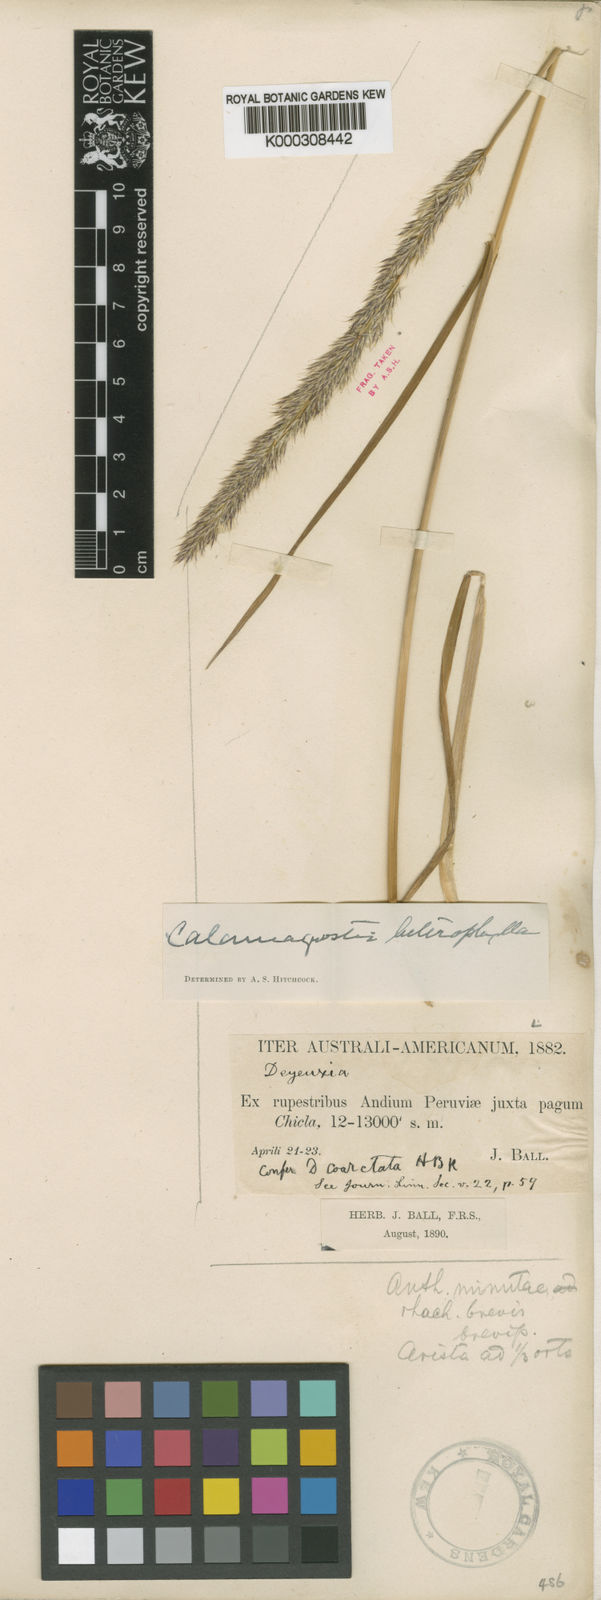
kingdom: Plantae
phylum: Tracheophyta
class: Liliopsida
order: Poales
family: Poaceae
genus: Cinnagrostis
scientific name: Cinnagrostis heterophylla
